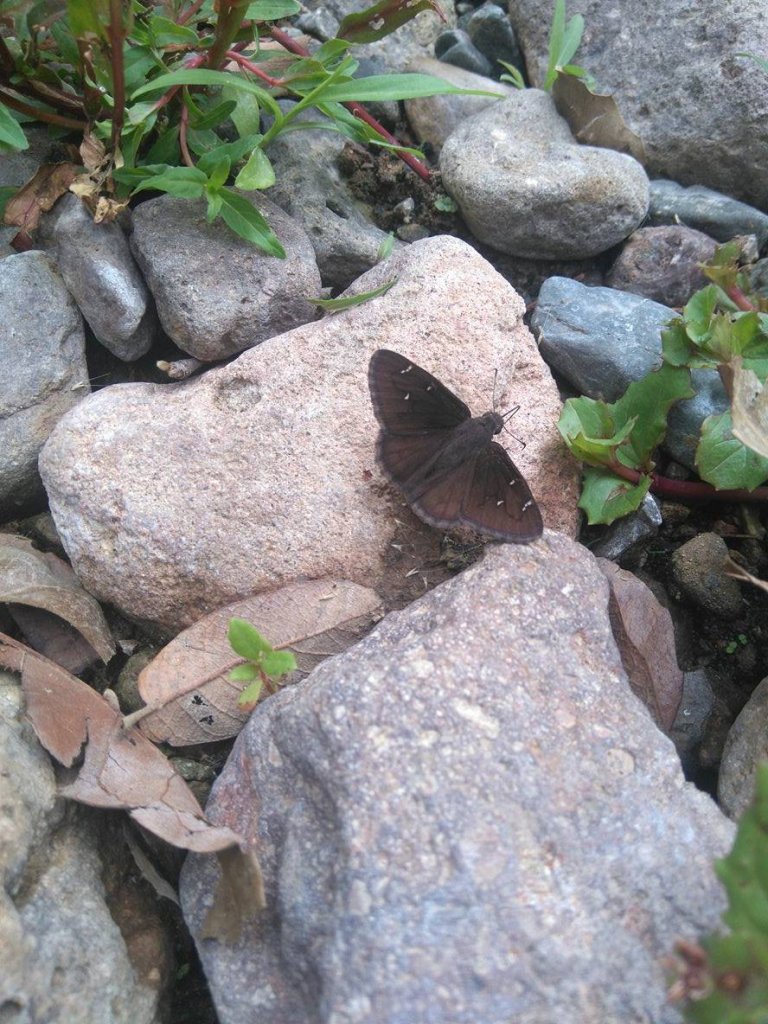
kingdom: Animalia
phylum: Arthropoda
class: Insecta
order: Lepidoptera
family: Hesperiidae
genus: Autochton
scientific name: Autochton
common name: Northern Cloudywing
